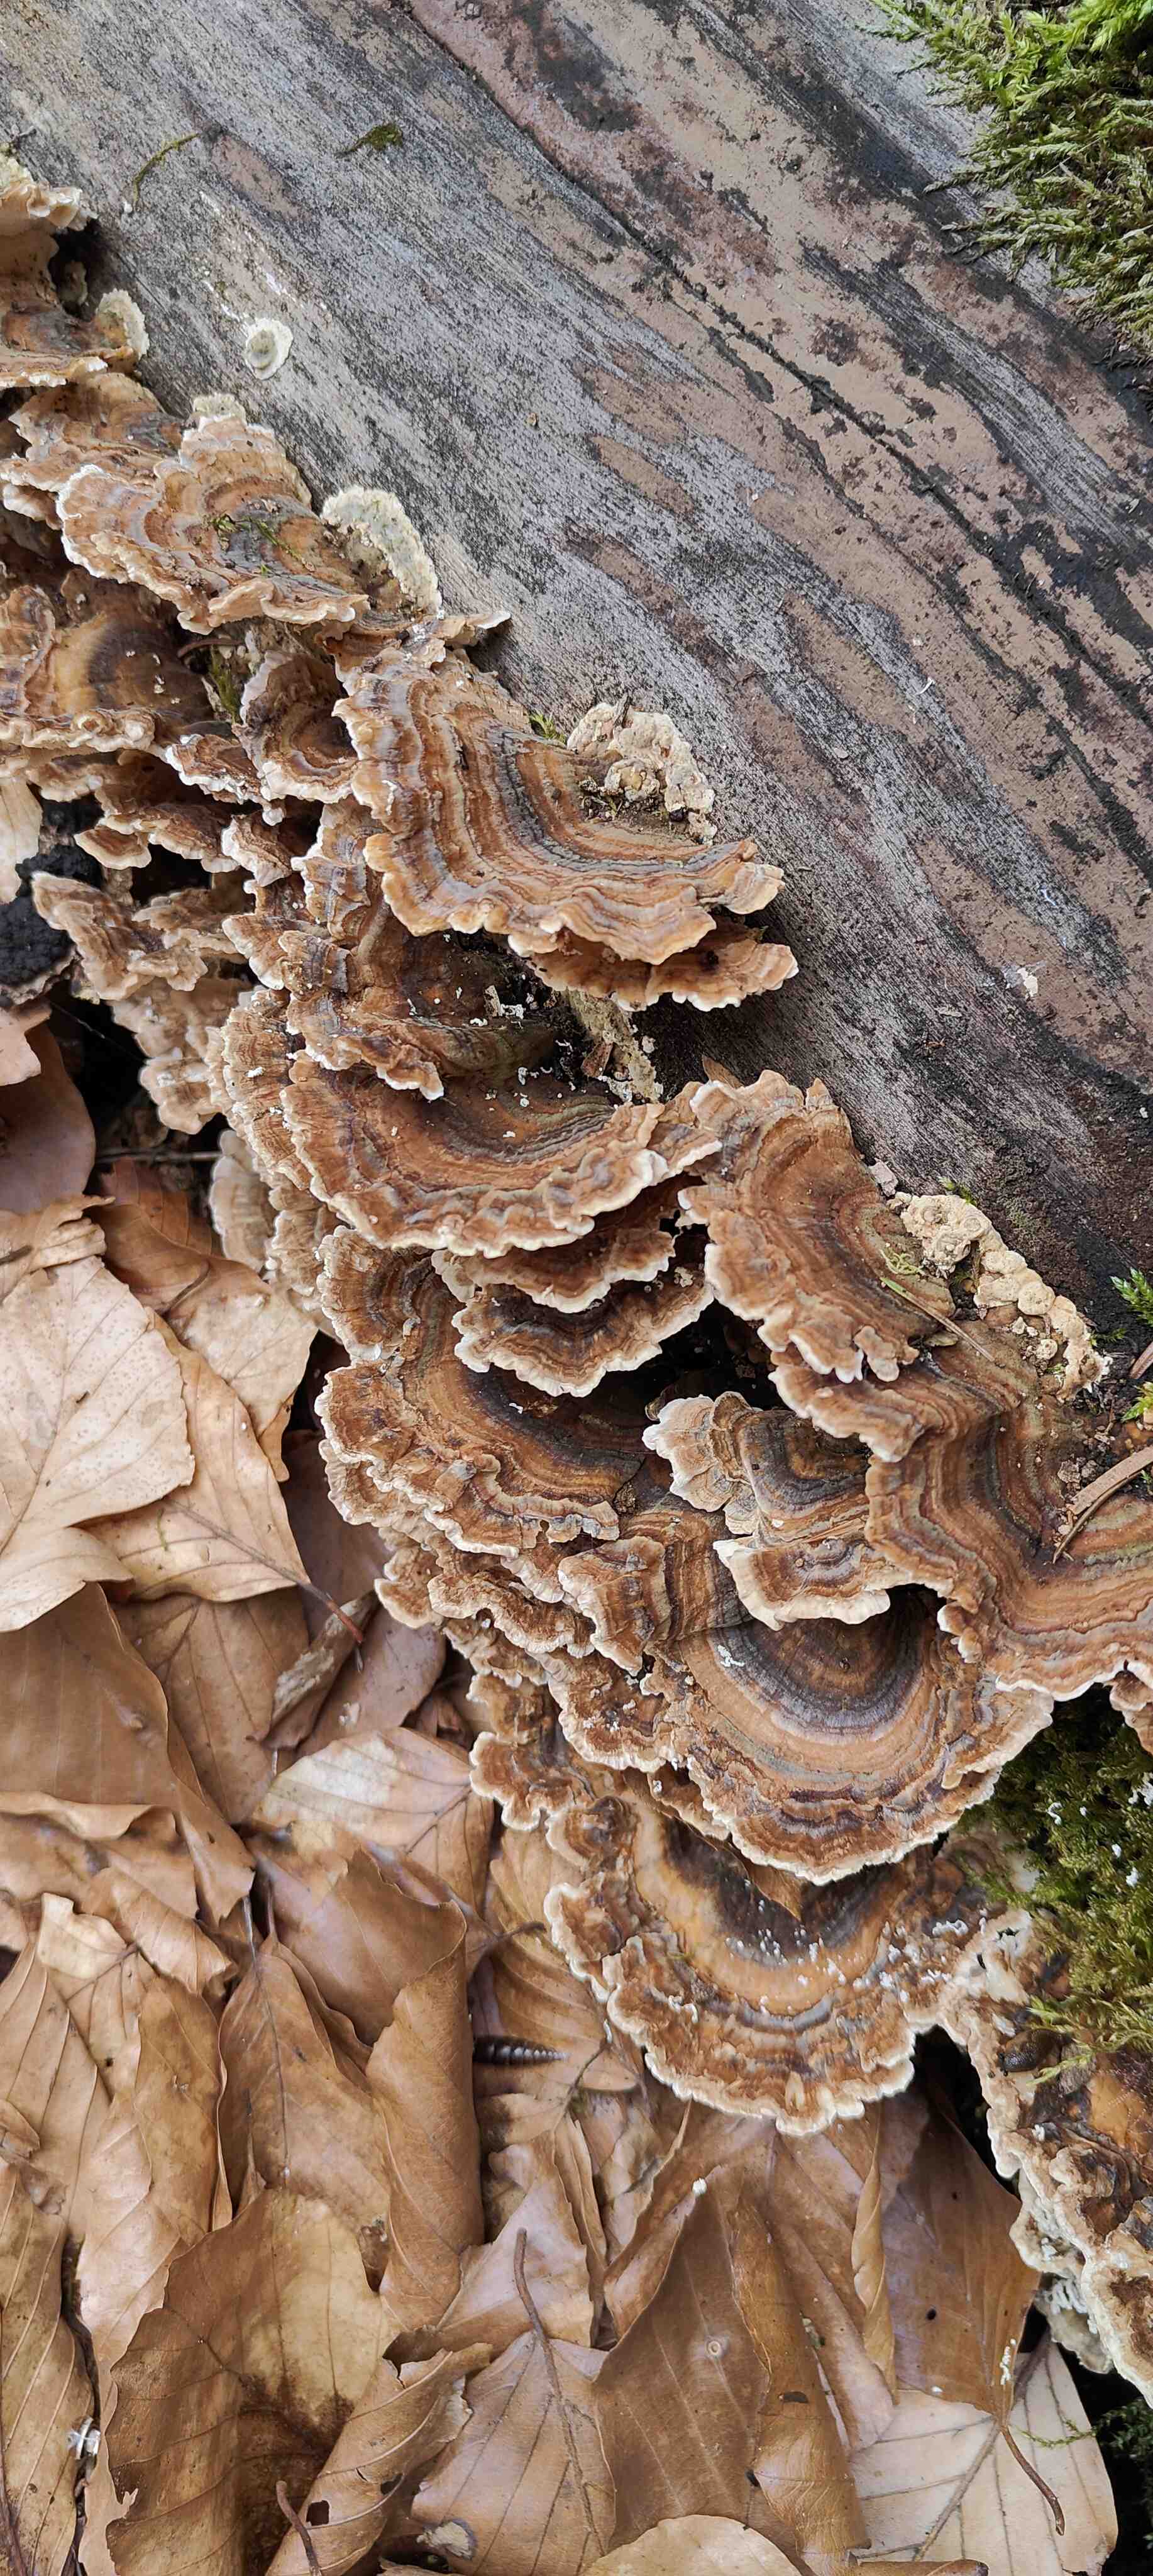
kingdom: Fungi
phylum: Basidiomycota
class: Agaricomycetes
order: Polyporales
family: Polyporaceae
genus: Trametes
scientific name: Trametes versicolor
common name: broget læderporesvamp
